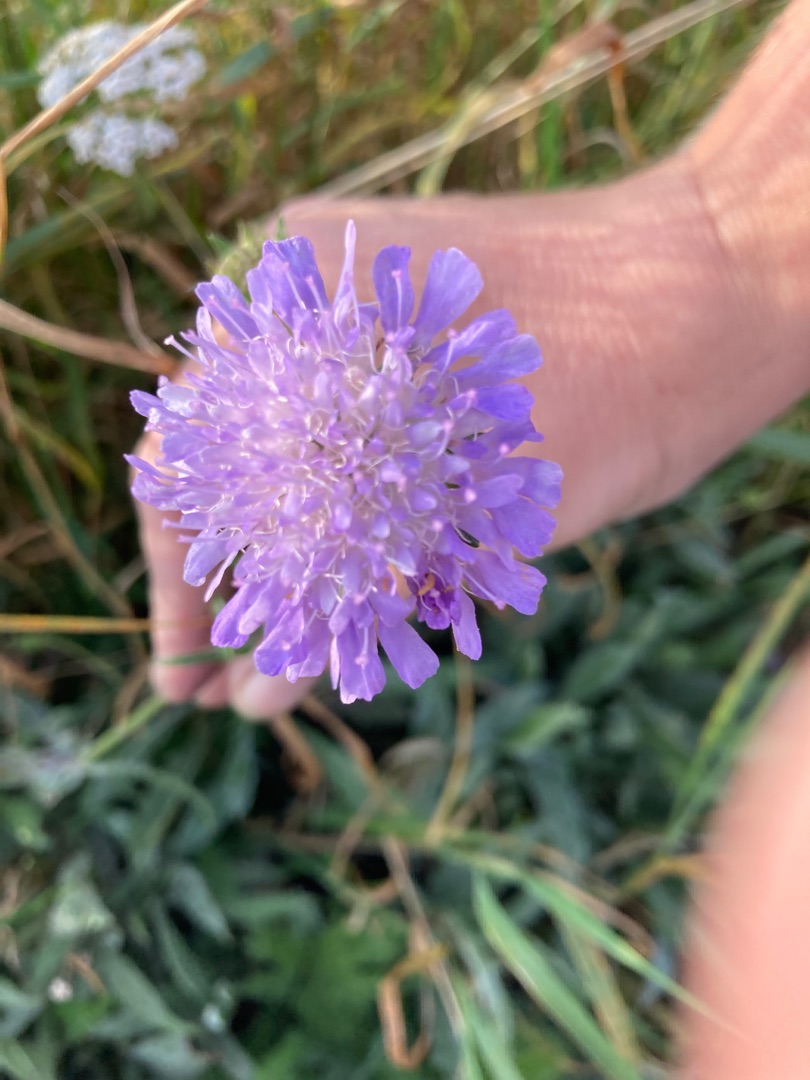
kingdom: Plantae
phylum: Tracheophyta
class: Magnoliopsida
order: Dipsacales
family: Caprifoliaceae
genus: Knautia
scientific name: Knautia arvensis
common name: Blåhat
